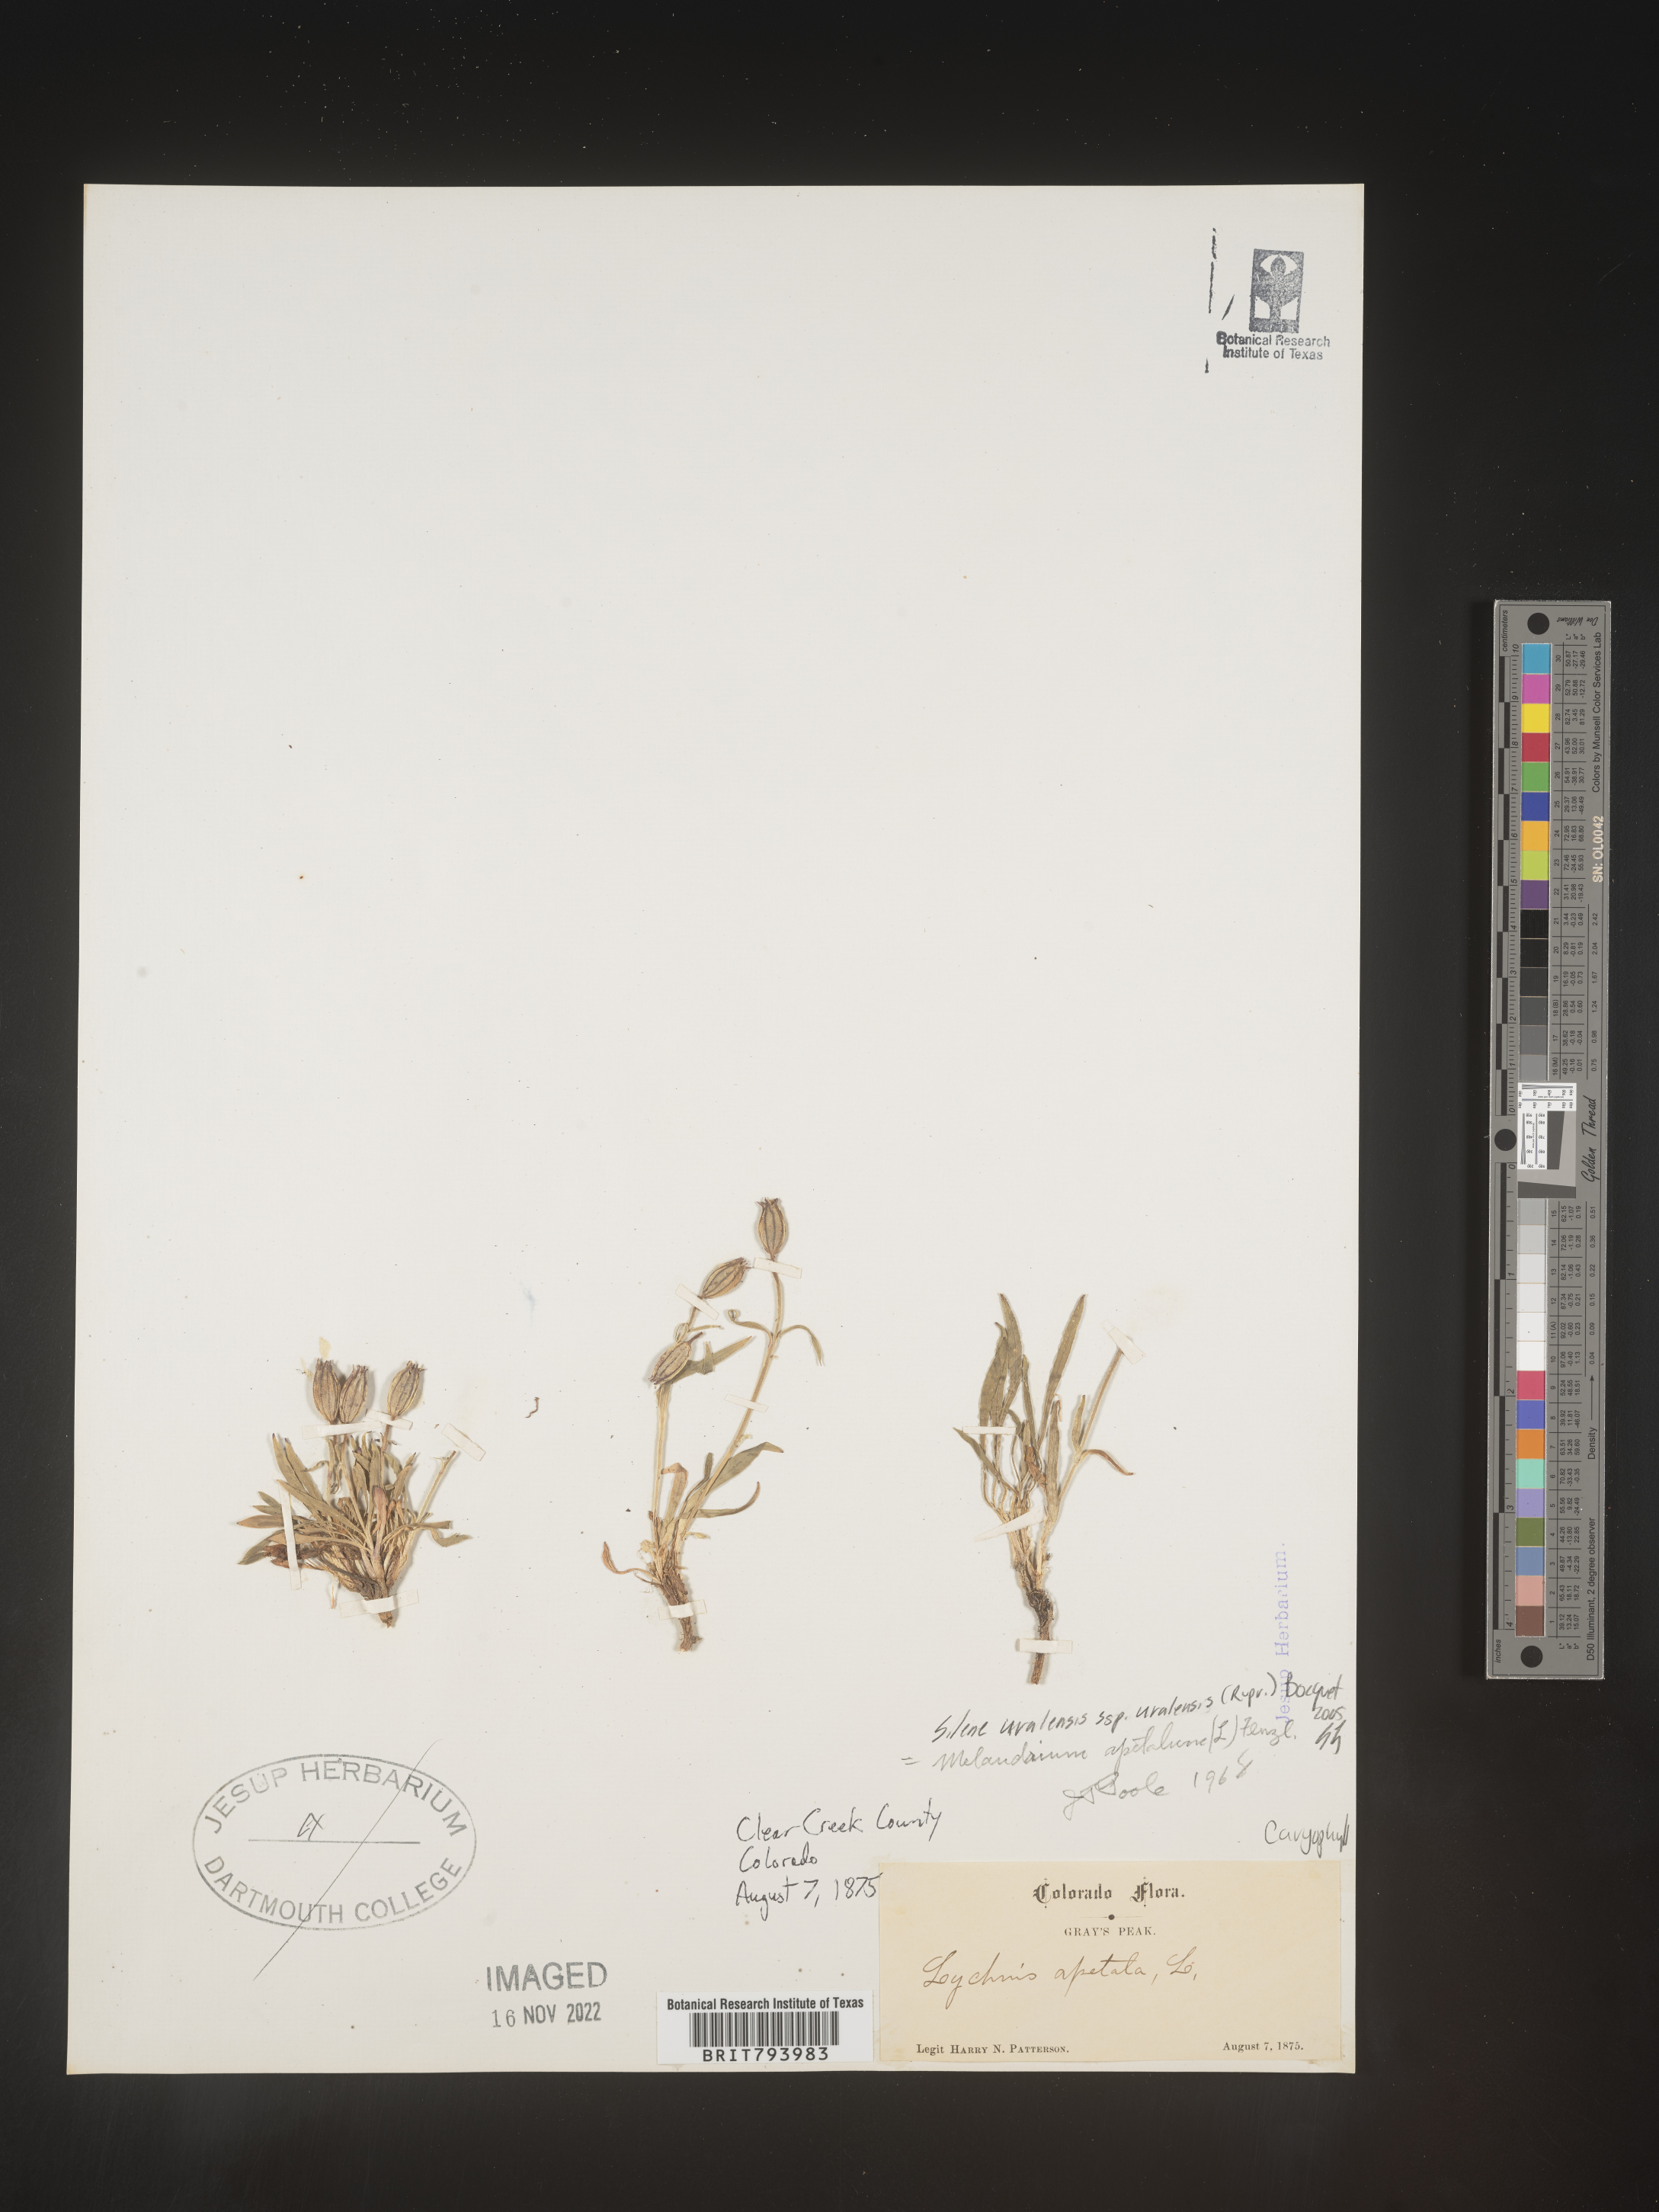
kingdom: Plantae
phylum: Tracheophyta
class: Magnoliopsida
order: Caryophyllales
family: Caryophyllaceae
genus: Silene
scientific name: Silene uralensis
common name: Nodding campion
